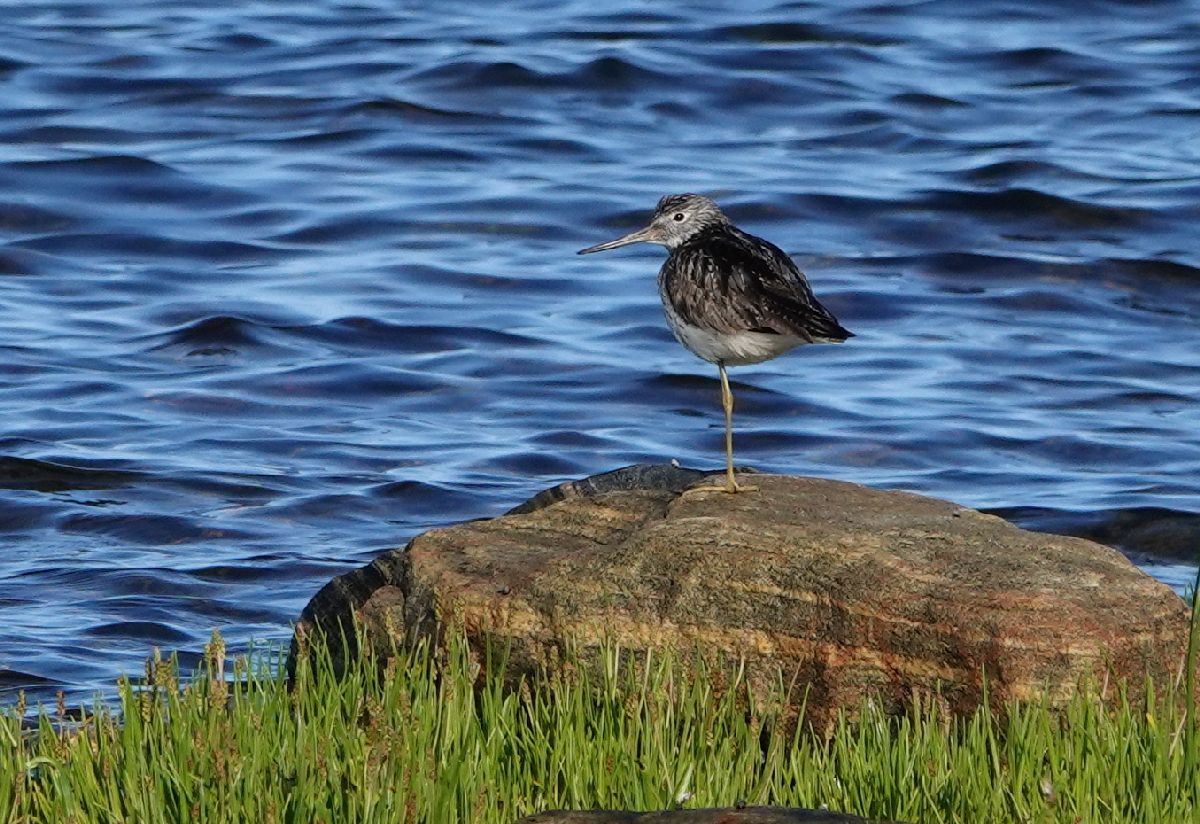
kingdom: Animalia
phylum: Chordata
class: Aves
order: Charadriiformes
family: Scolopacidae
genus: Tringa
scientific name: Tringa nebularia
